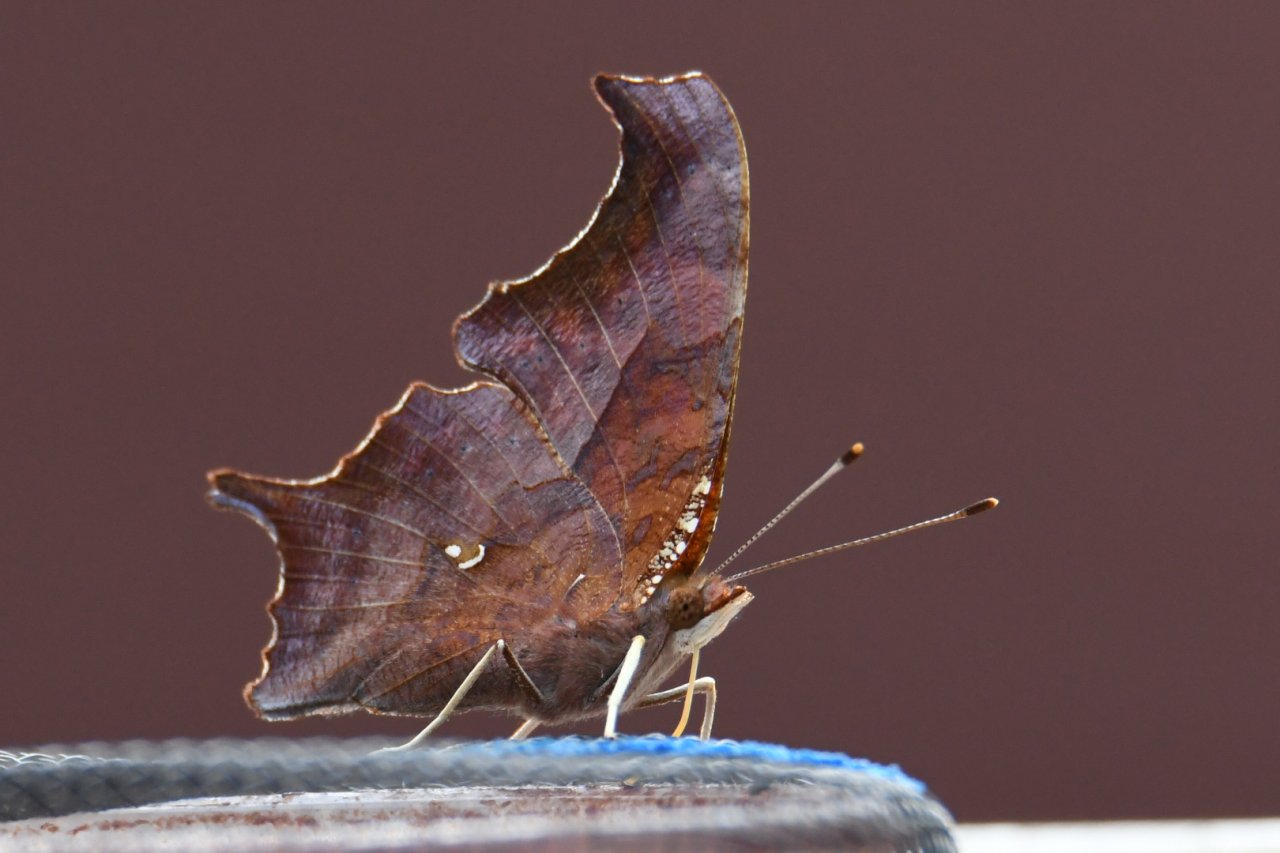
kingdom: Animalia
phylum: Arthropoda
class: Insecta
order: Lepidoptera
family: Nymphalidae
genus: Polygonia
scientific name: Polygonia interrogationis
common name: Question Mark
